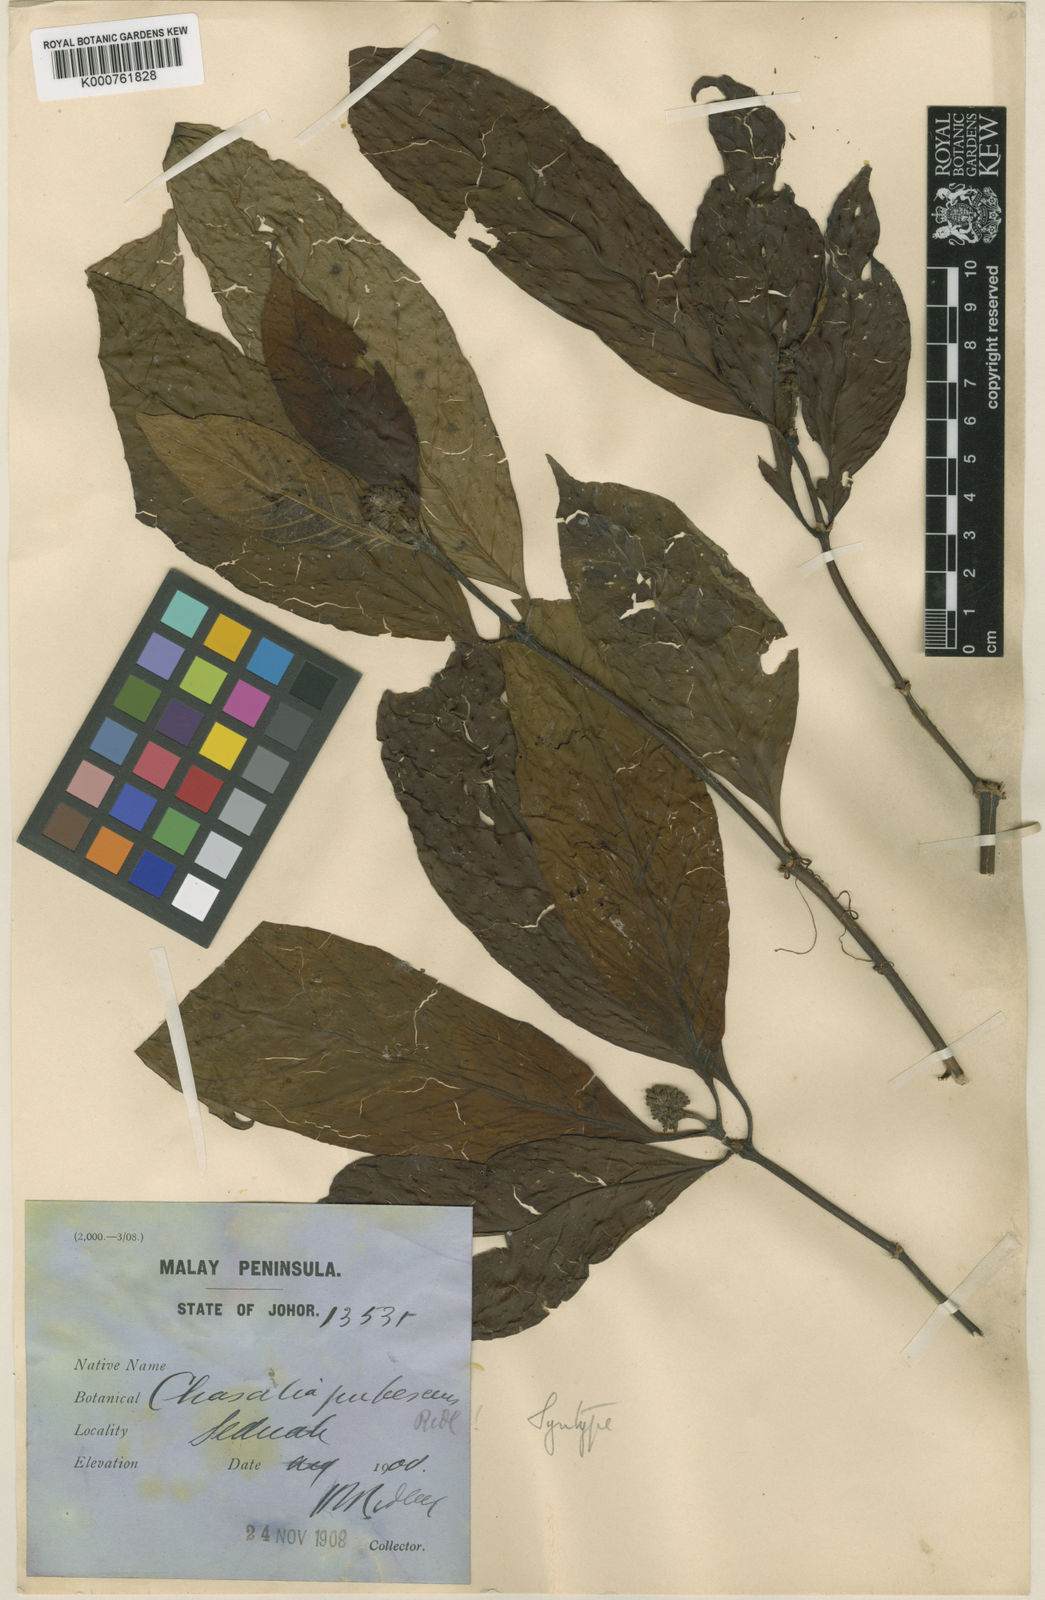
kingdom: Plantae
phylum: Tracheophyta
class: Magnoliopsida
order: Gentianales
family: Rubiaceae
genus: Chassalia
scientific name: Chassalia pubescens
